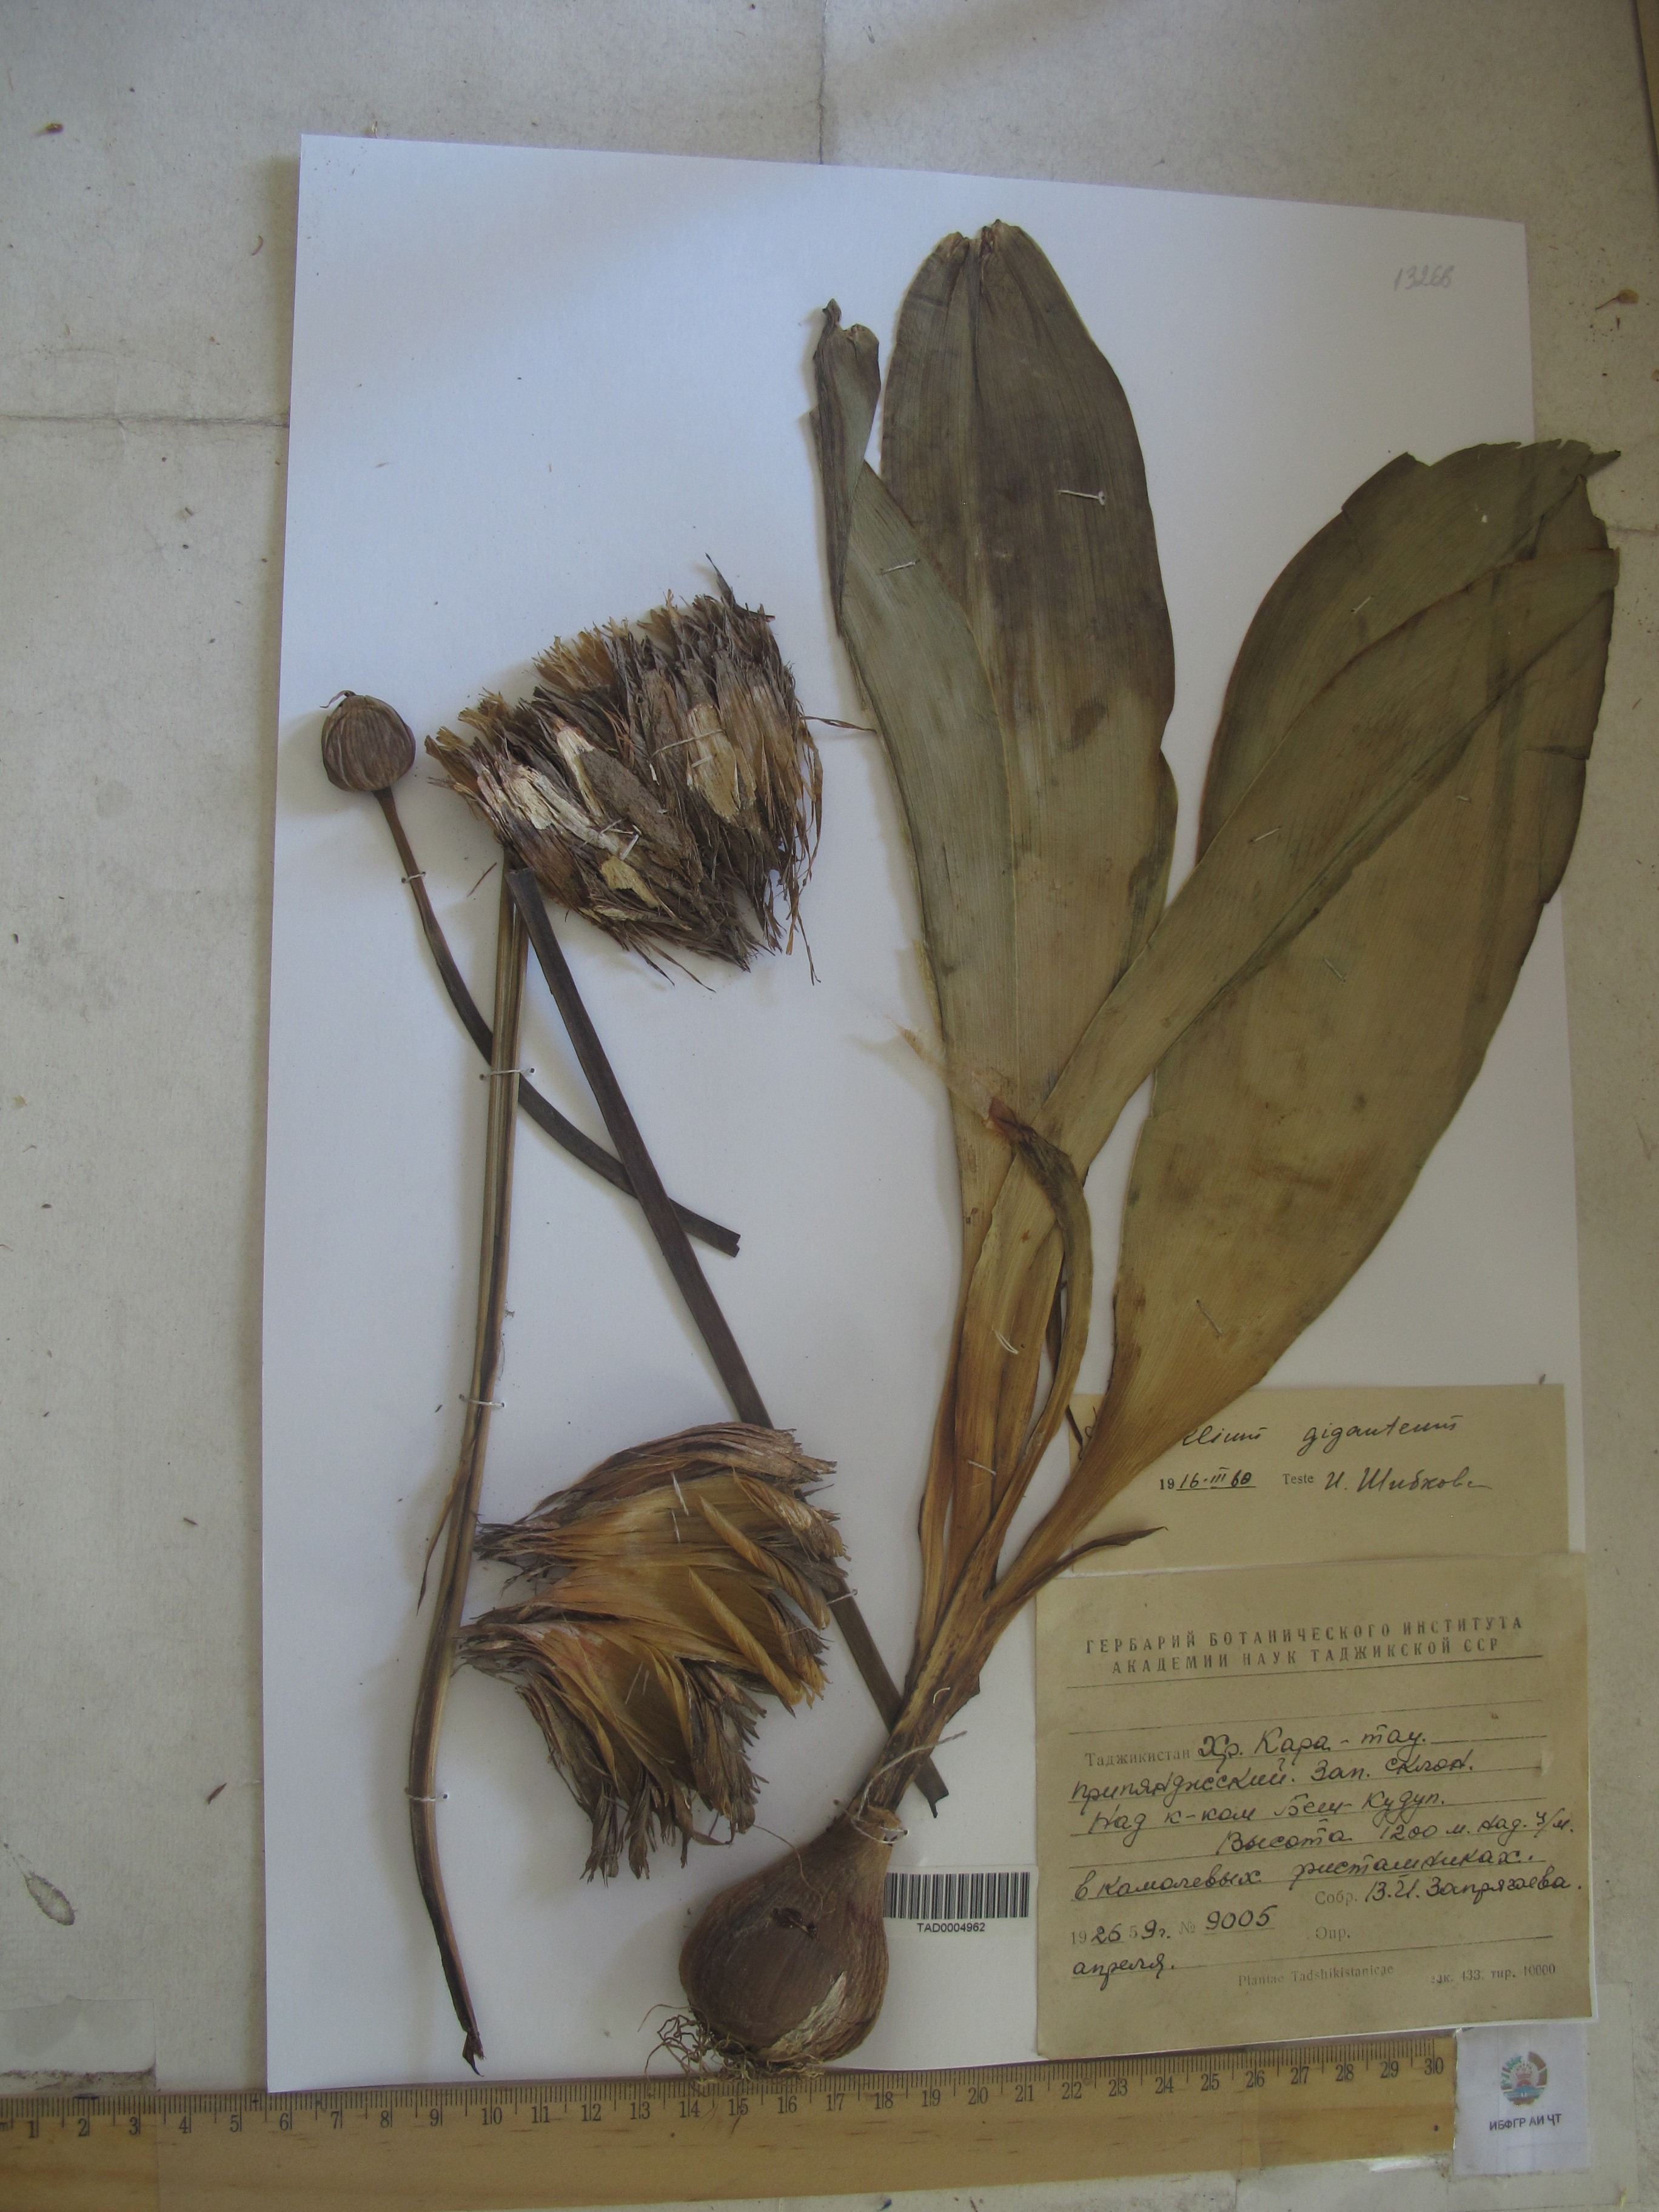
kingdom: Plantae
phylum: Tracheophyta
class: Liliopsida
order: Asparagales
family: Amaryllidaceae
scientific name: Amaryllidaceae
